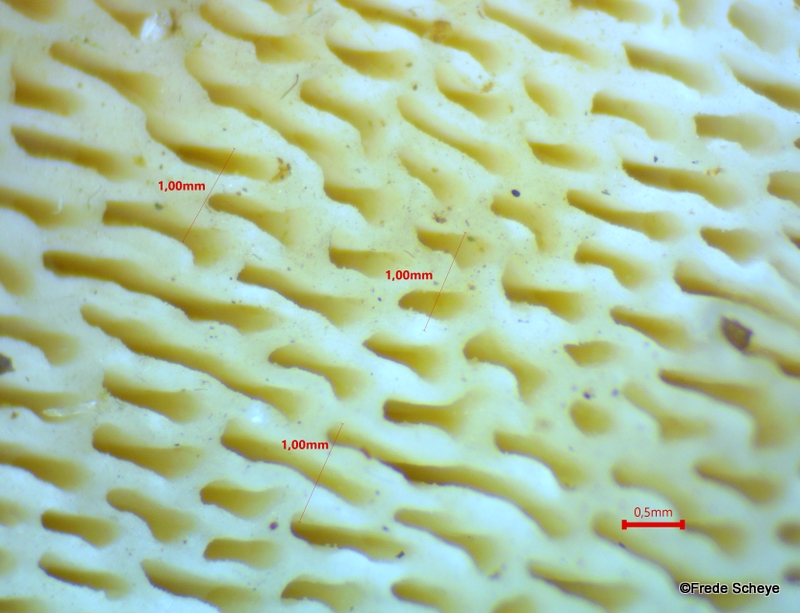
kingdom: Fungi
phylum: Basidiomycota
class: Agaricomycetes
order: Polyporales
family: Polyporaceae
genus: Trametes
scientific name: Trametes gibbosa
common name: puklet læderporesvamp
